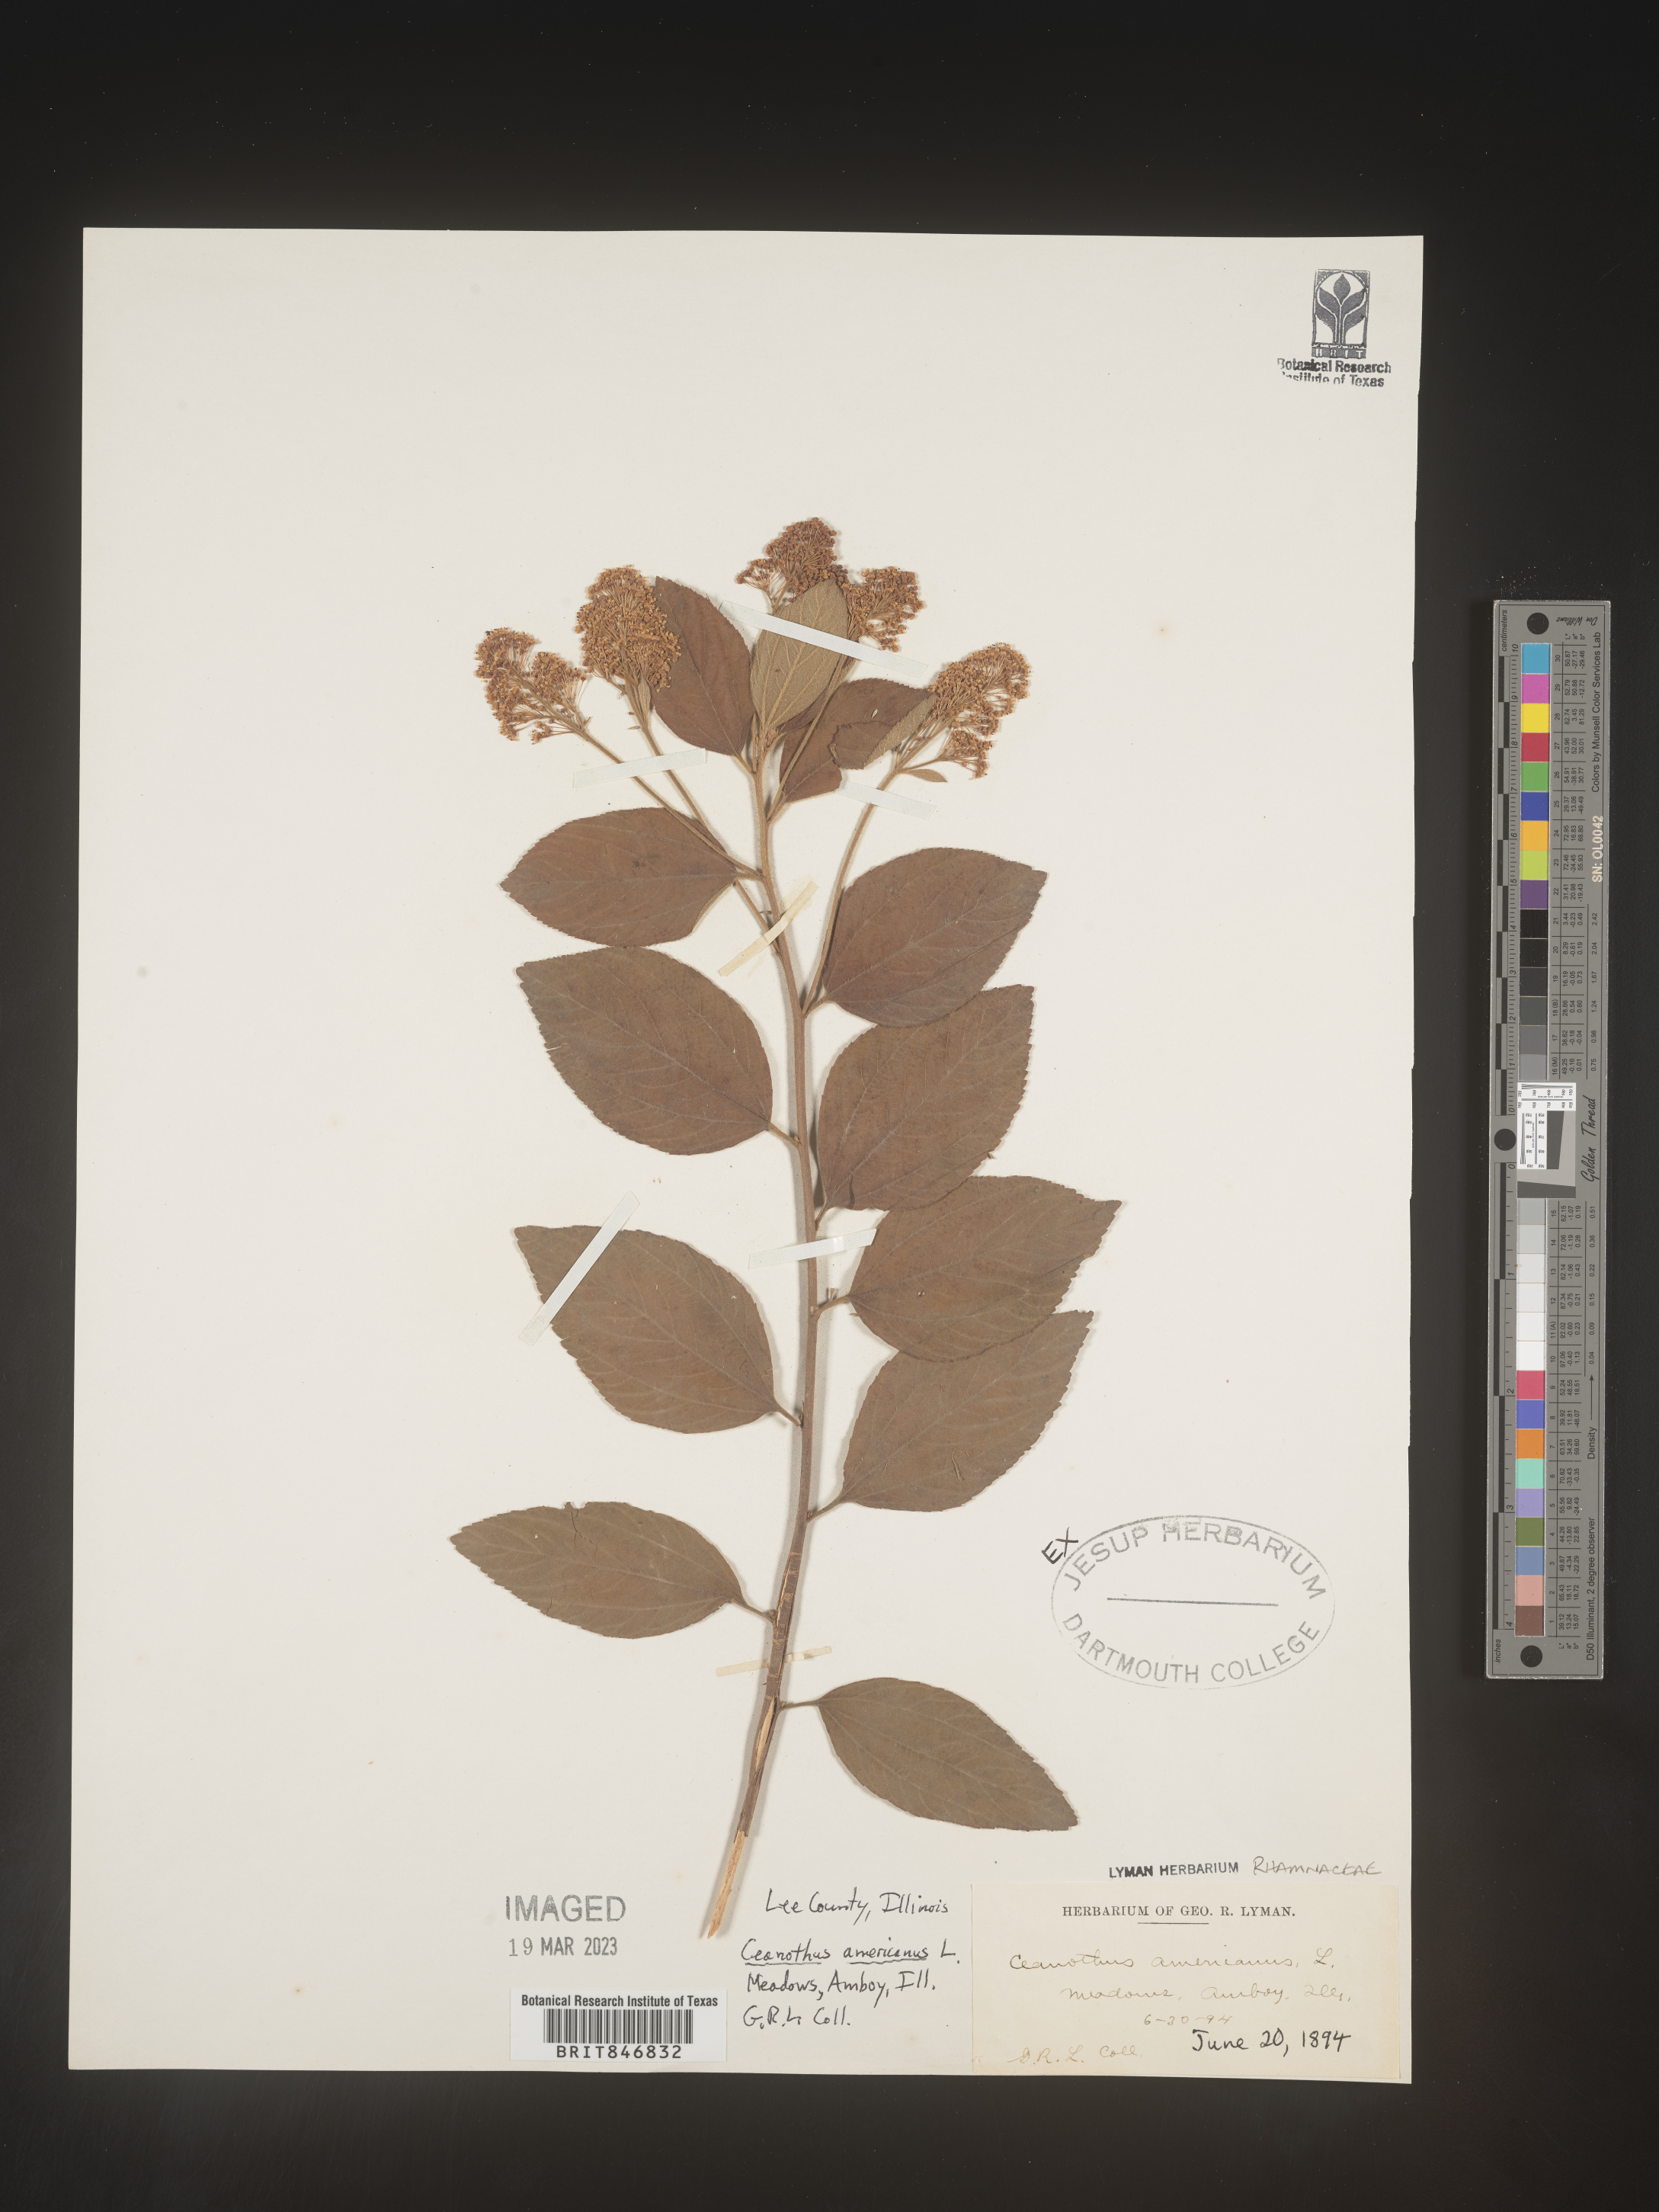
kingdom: Plantae
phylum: Tracheophyta
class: Magnoliopsida
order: Rosales
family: Rhamnaceae
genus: Ceanothus
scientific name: Ceanothus americanus
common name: Redroot
